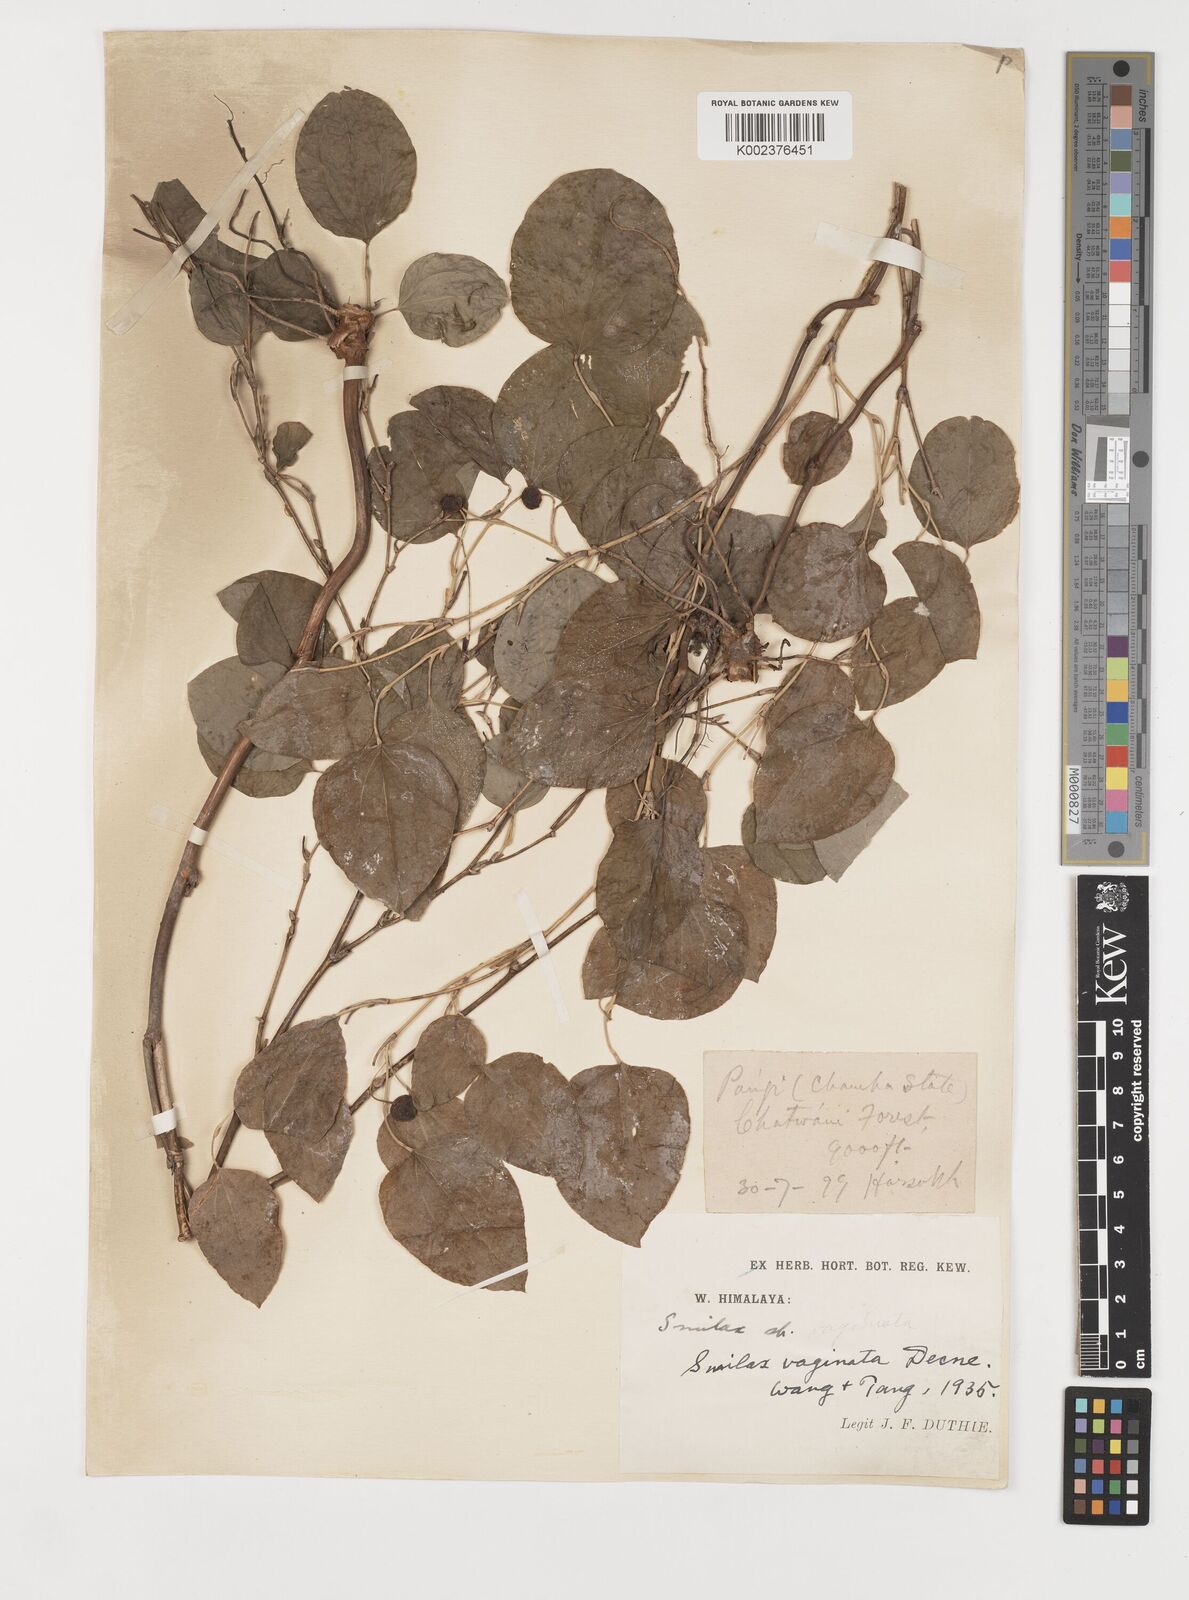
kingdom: Plantae
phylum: Tracheophyta
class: Liliopsida
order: Liliales
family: Smilacaceae
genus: Smilax
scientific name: Smilax vaginata
